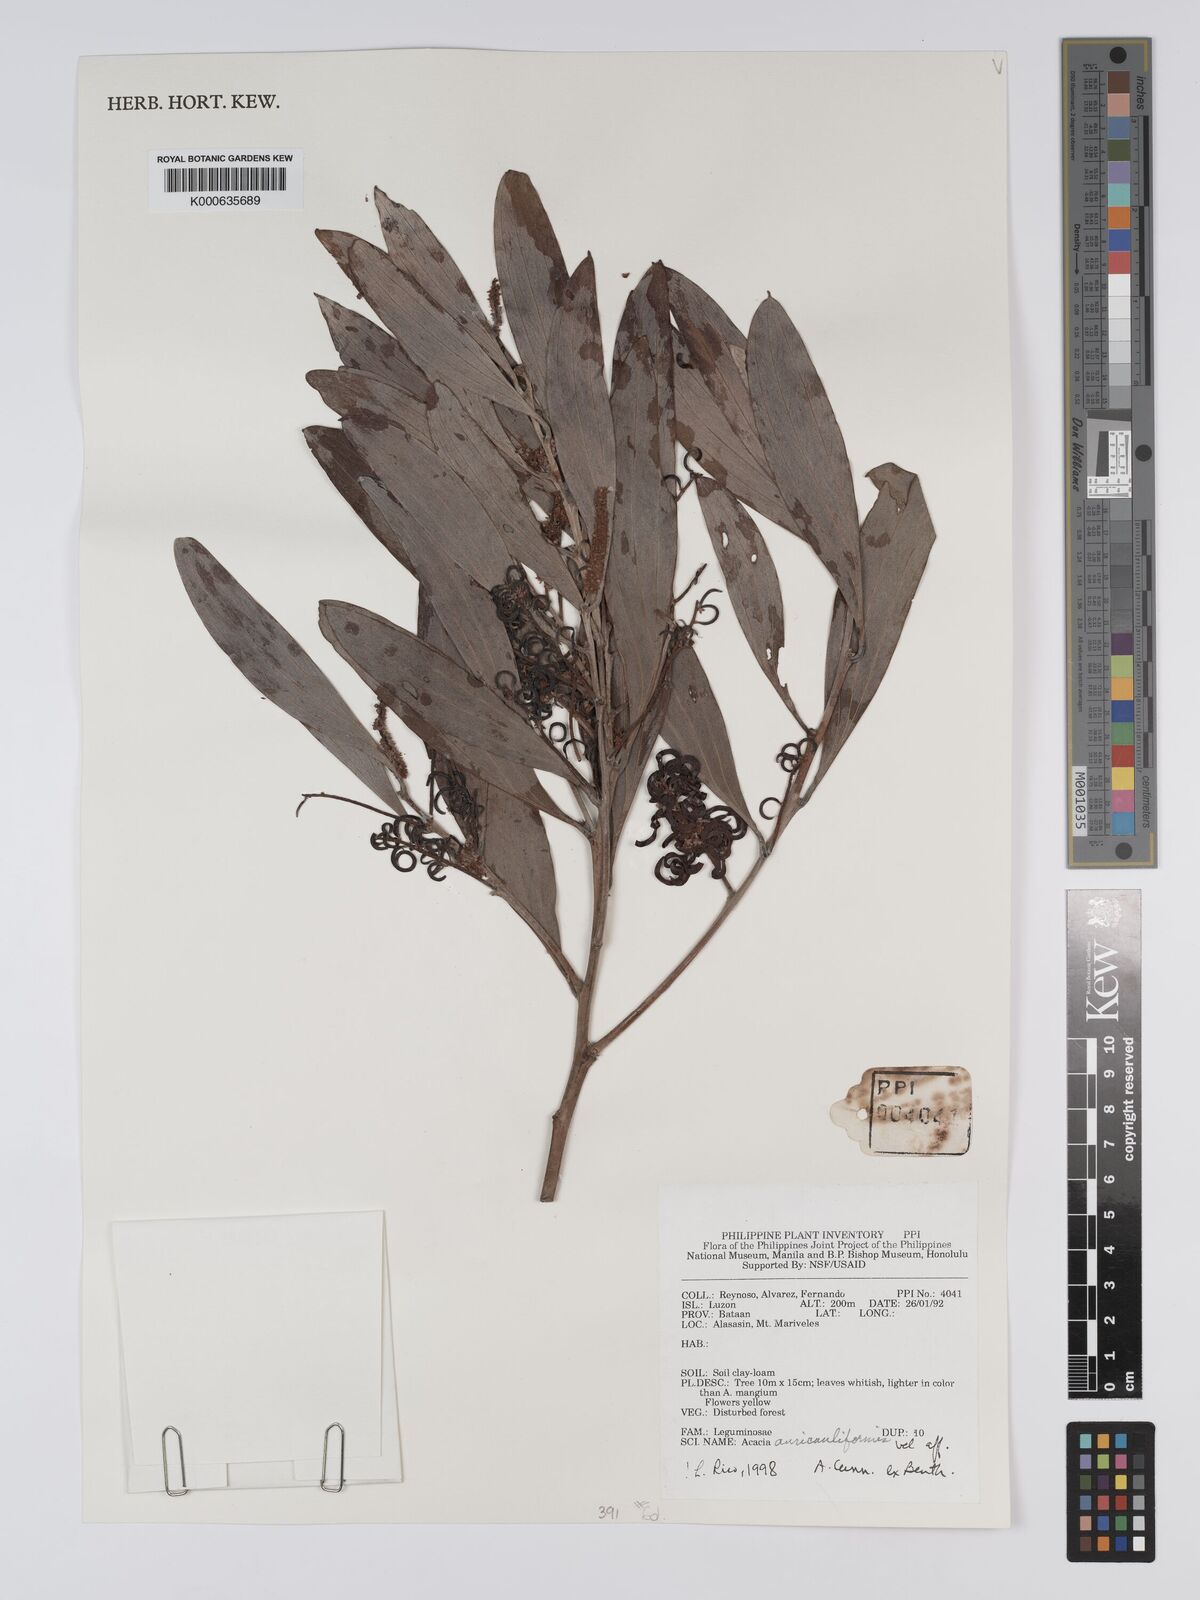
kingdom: Plantae
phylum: Tracheophyta
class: Magnoliopsida
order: Fabales
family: Fabaceae
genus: Acacia
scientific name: Acacia auriculiformis
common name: Earleaf acacia
